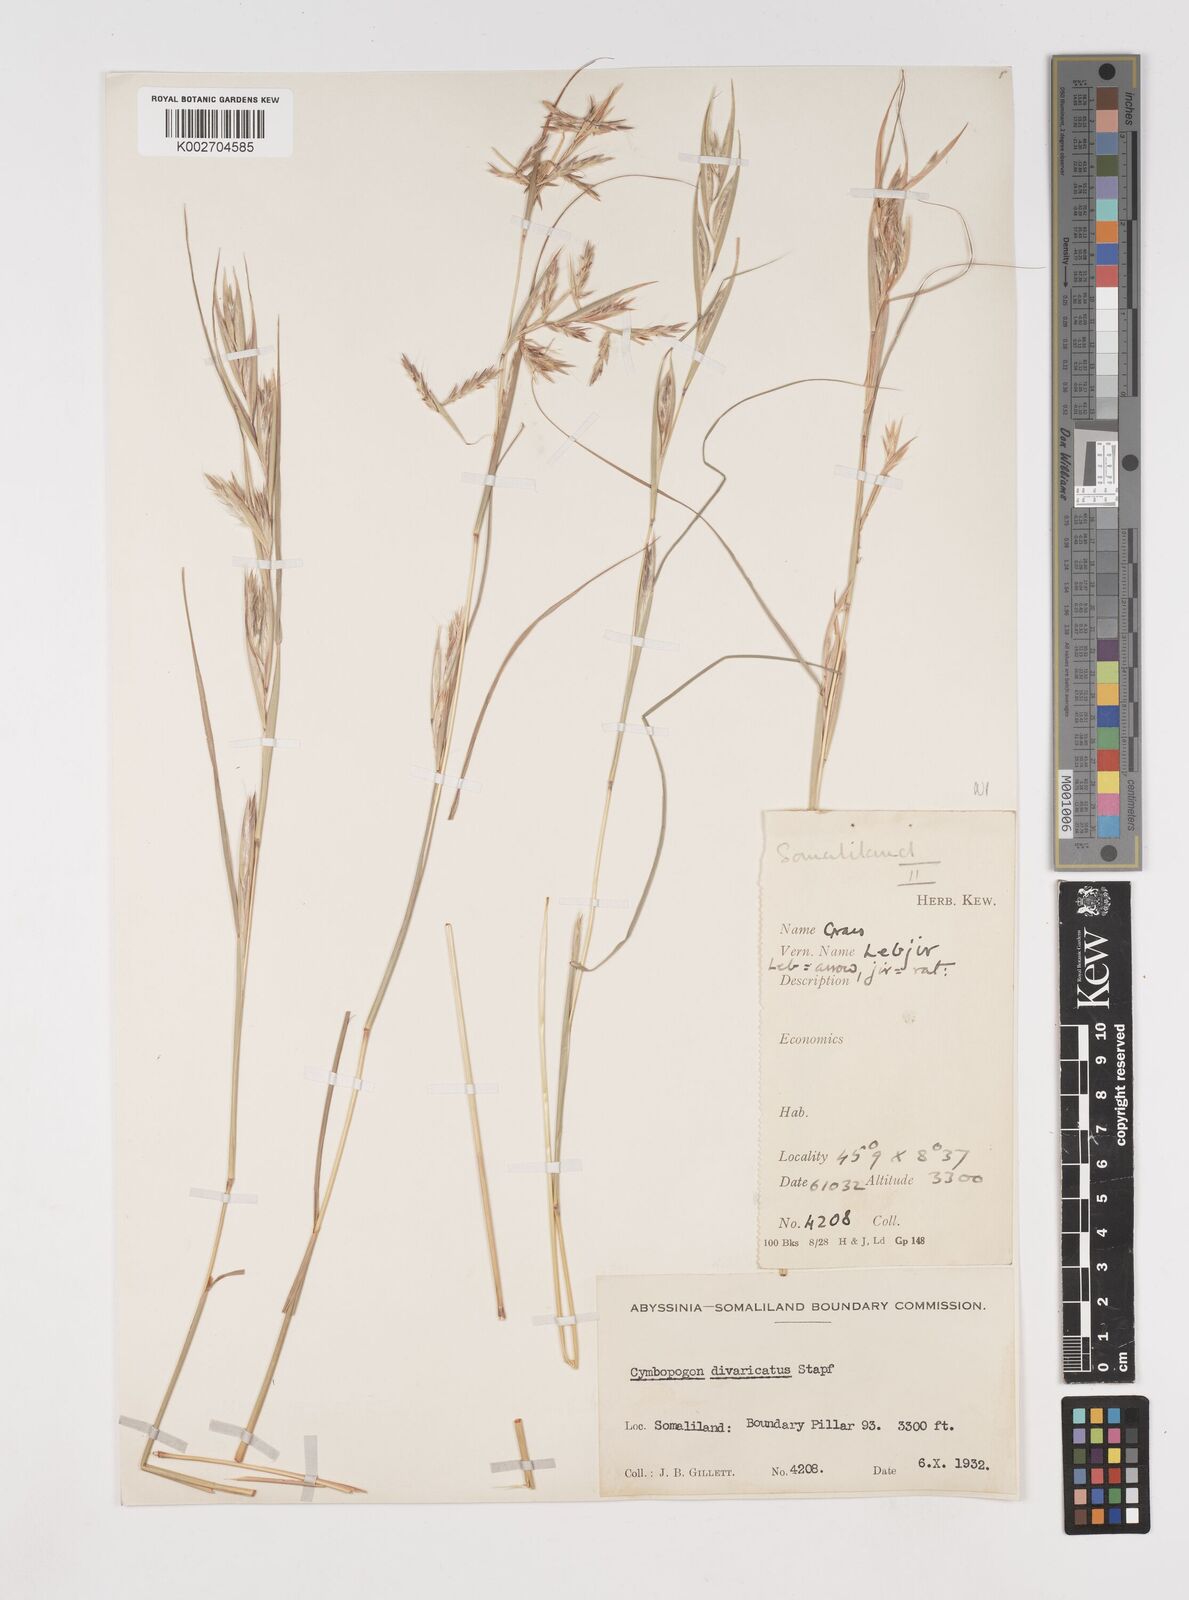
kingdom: Plantae
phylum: Tracheophyta
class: Liliopsida
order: Poales
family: Poaceae
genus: Cymbopogon
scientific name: Cymbopogon commutatus
